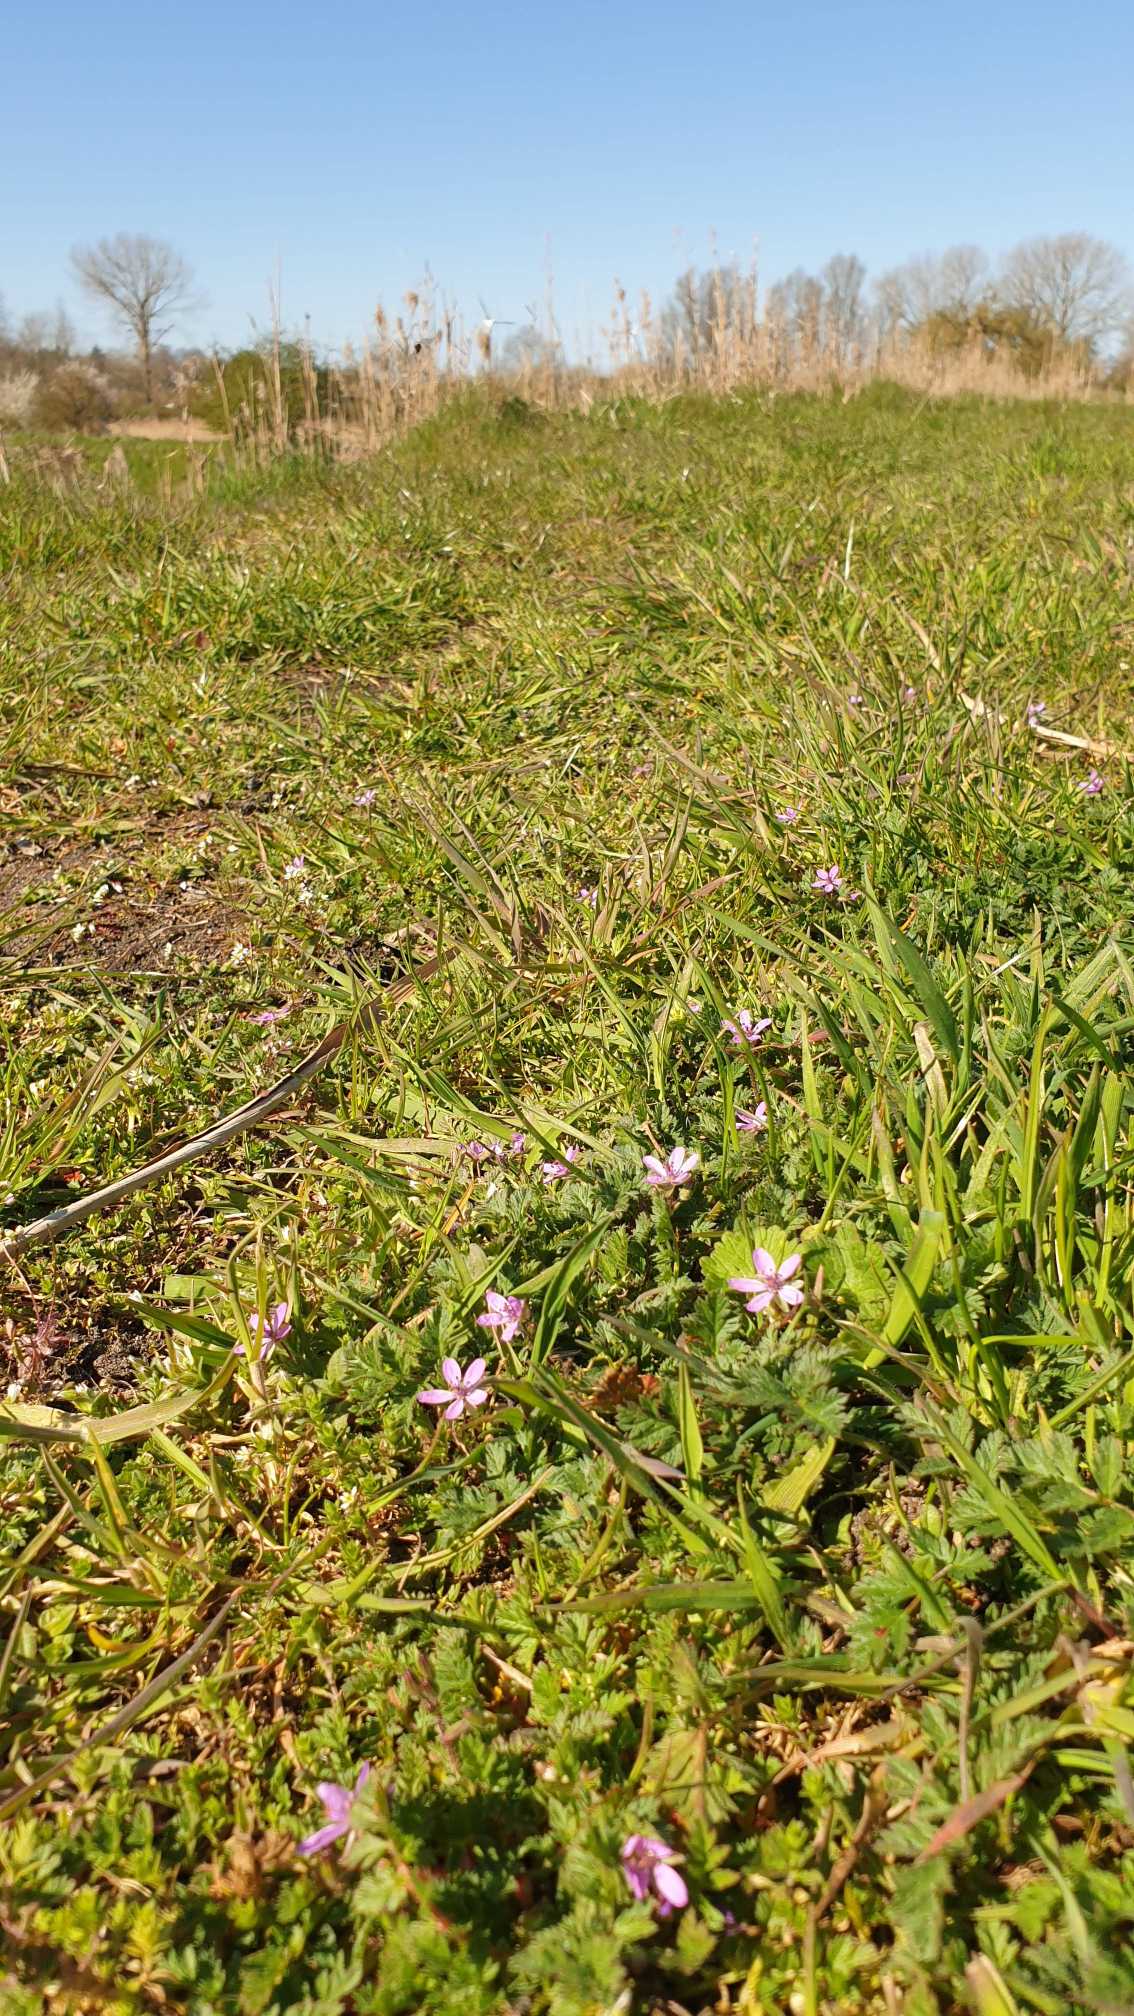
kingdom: Plantae
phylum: Tracheophyta
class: Magnoliopsida
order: Geraniales
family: Geraniaceae
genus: Erodium
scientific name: Erodium cicutarium
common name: Hejrenæb
